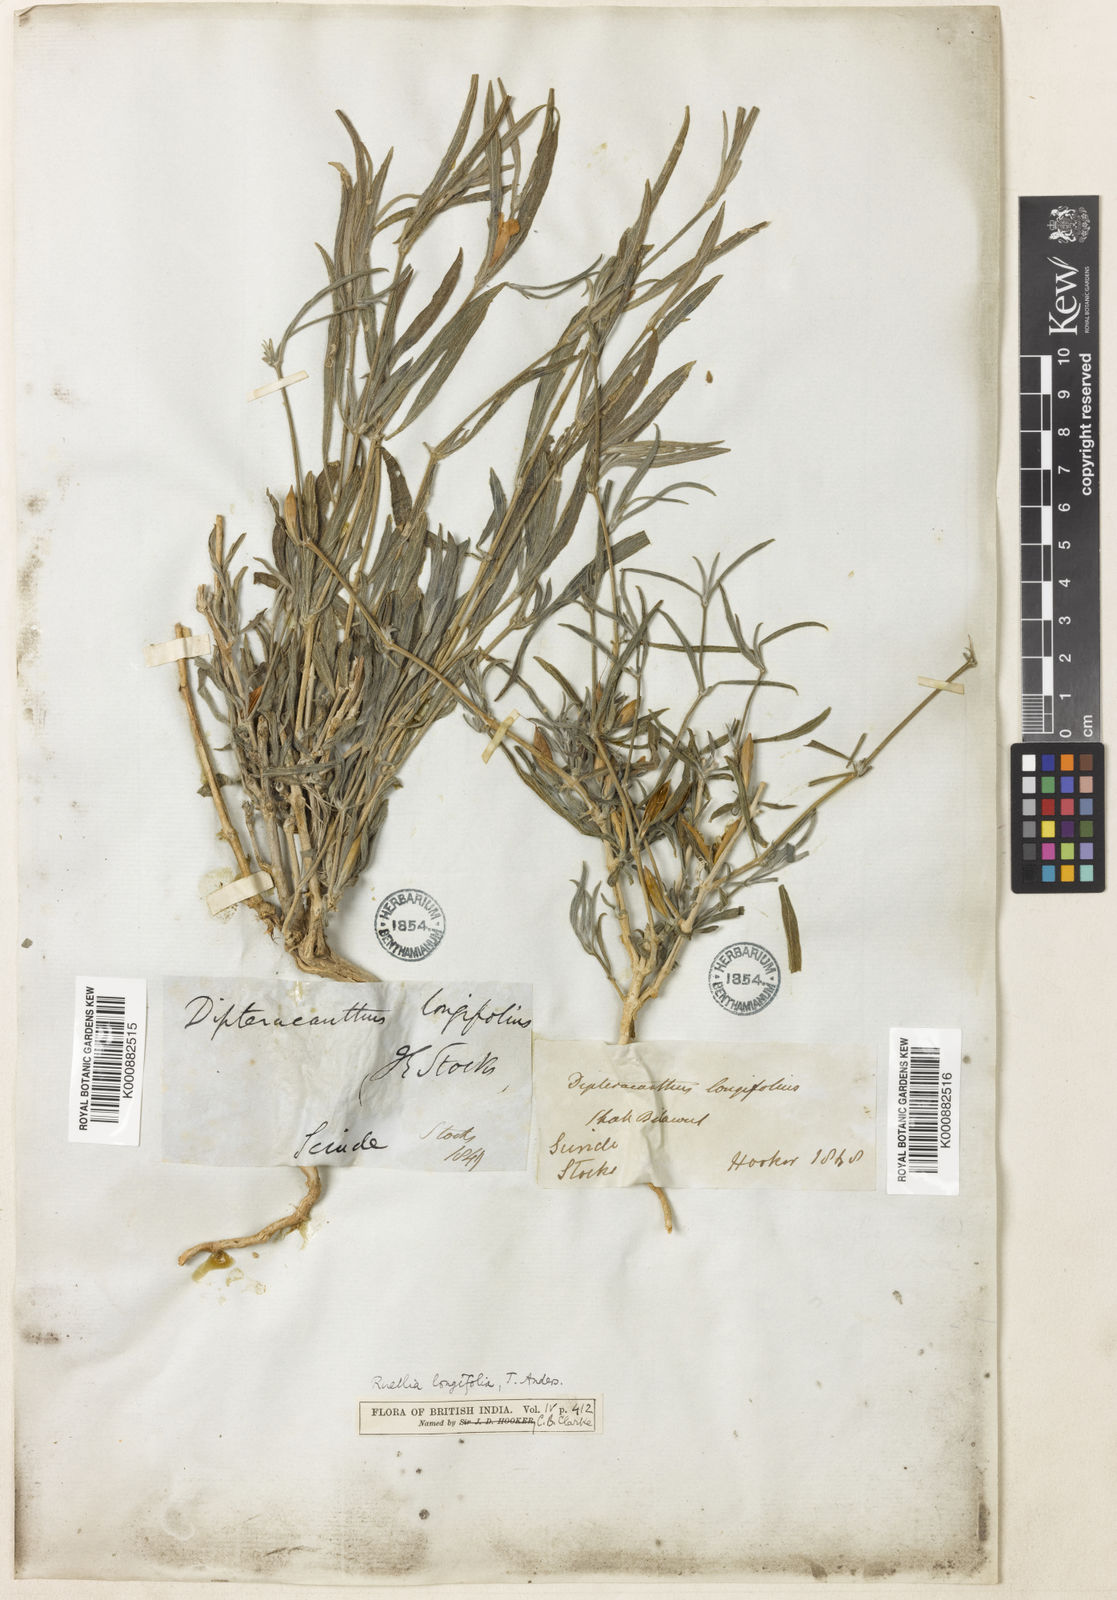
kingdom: Plantae
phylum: Tracheophyta
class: Magnoliopsida
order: Lamiales
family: Acanthaceae
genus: Ruellia
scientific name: Ruellia
